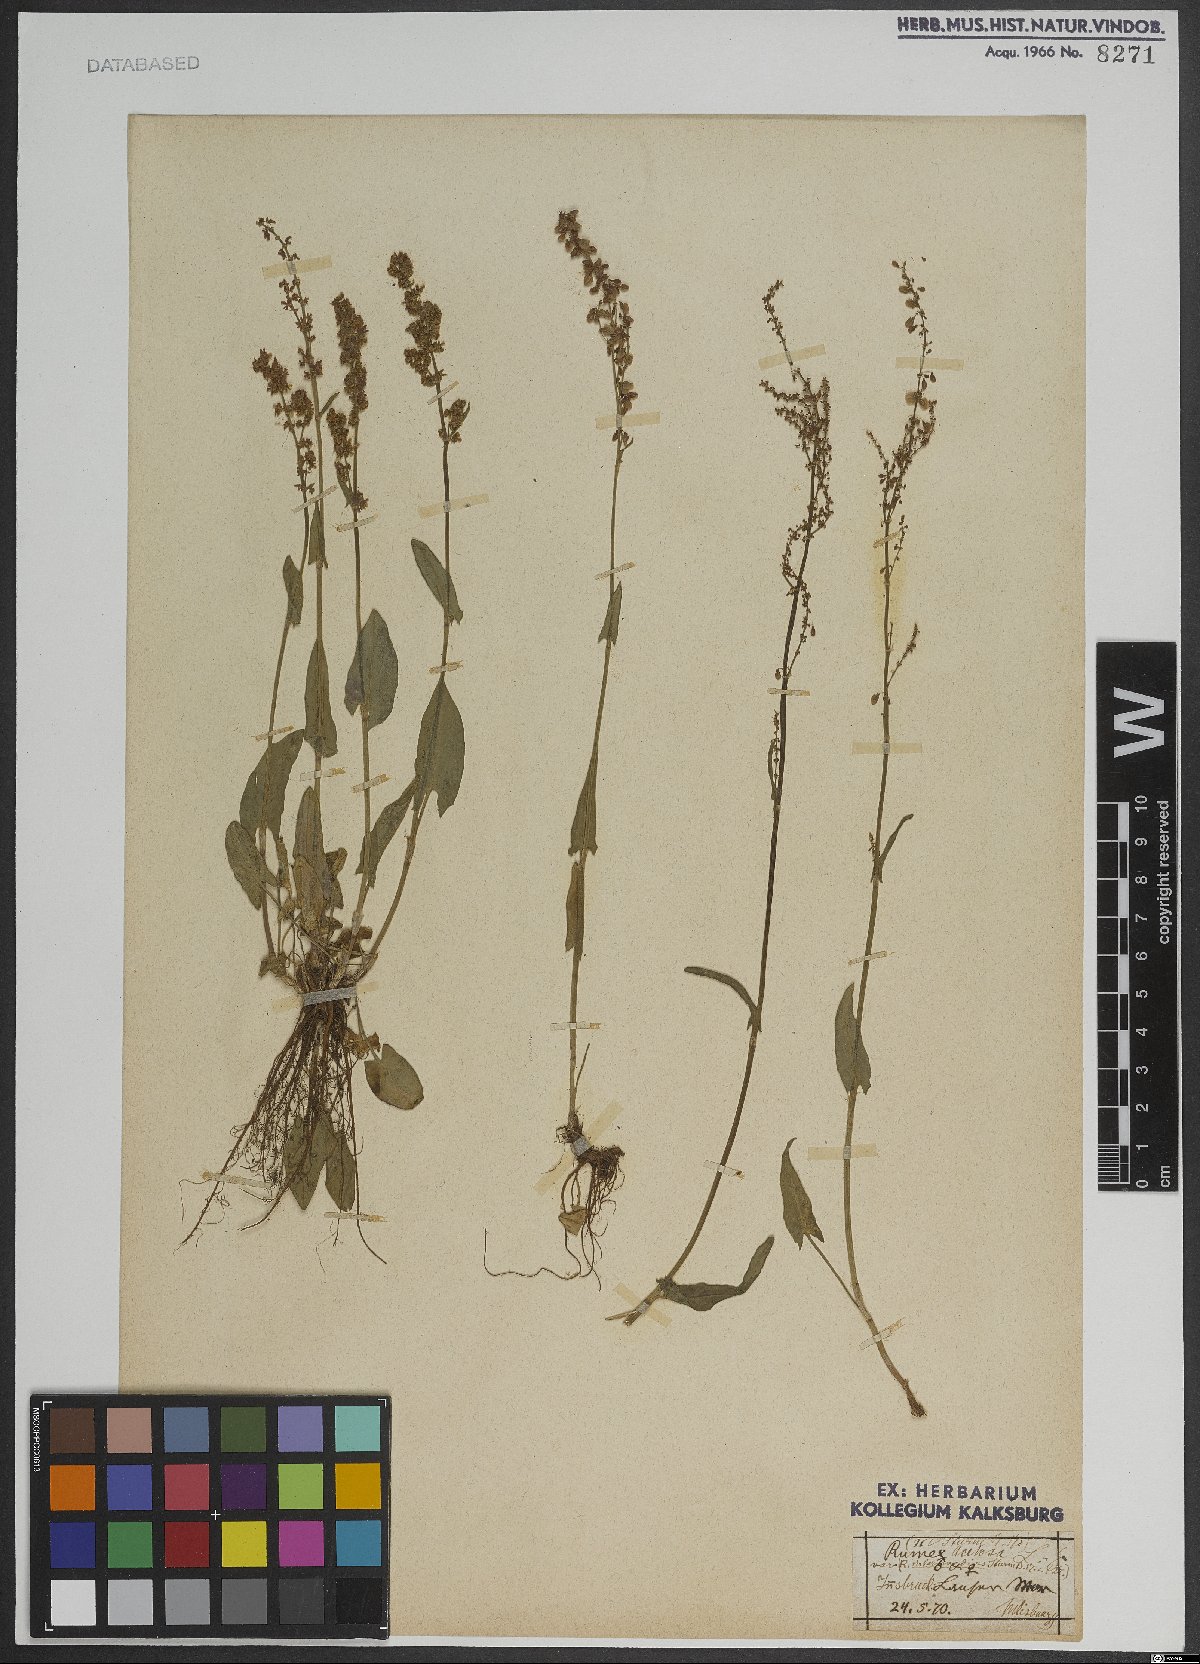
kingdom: Plantae
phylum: Tracheophyta
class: Magnoliopsida
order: Caryophyllales
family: Polygonaceae
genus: Rumex
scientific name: Rumex acetosa
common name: Garden sorrel
